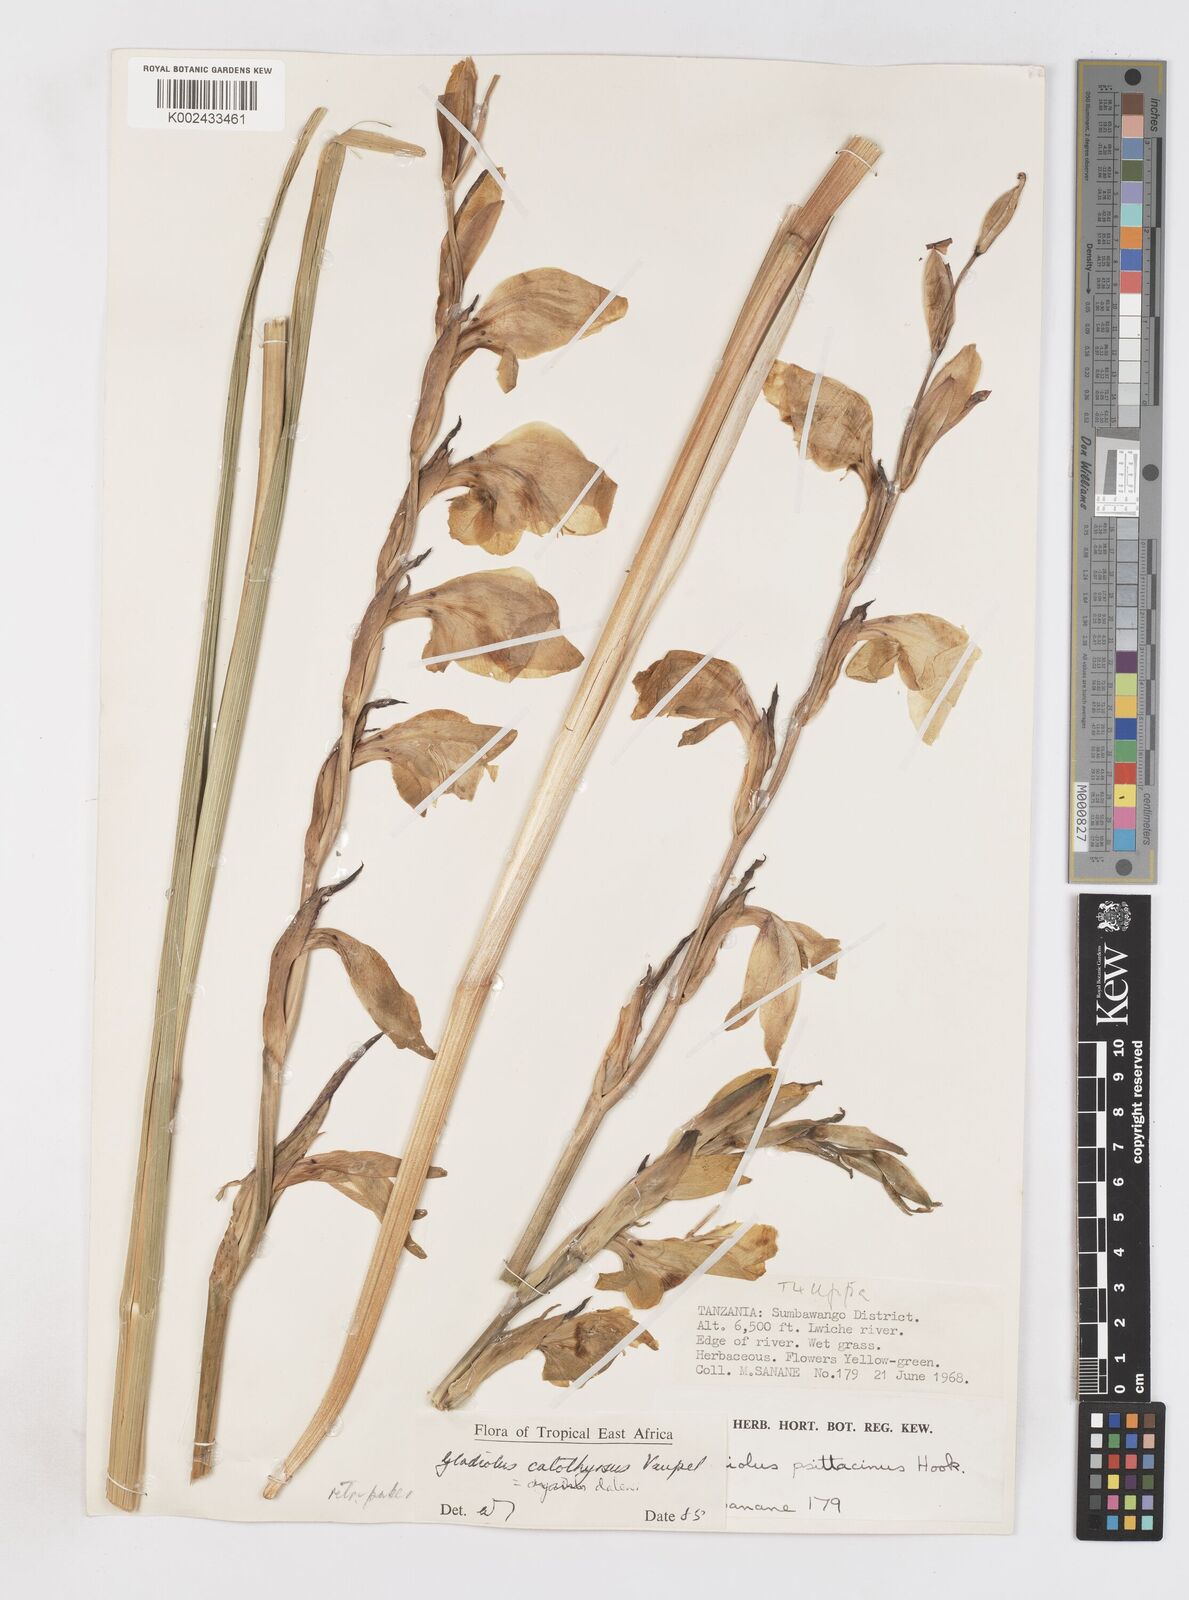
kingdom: Plantae
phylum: Tracheophyta
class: Liliopsida
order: Asparagales
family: Iridaceae
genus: Gladiolus
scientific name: Gladiolus dalenii
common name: Cornflag
